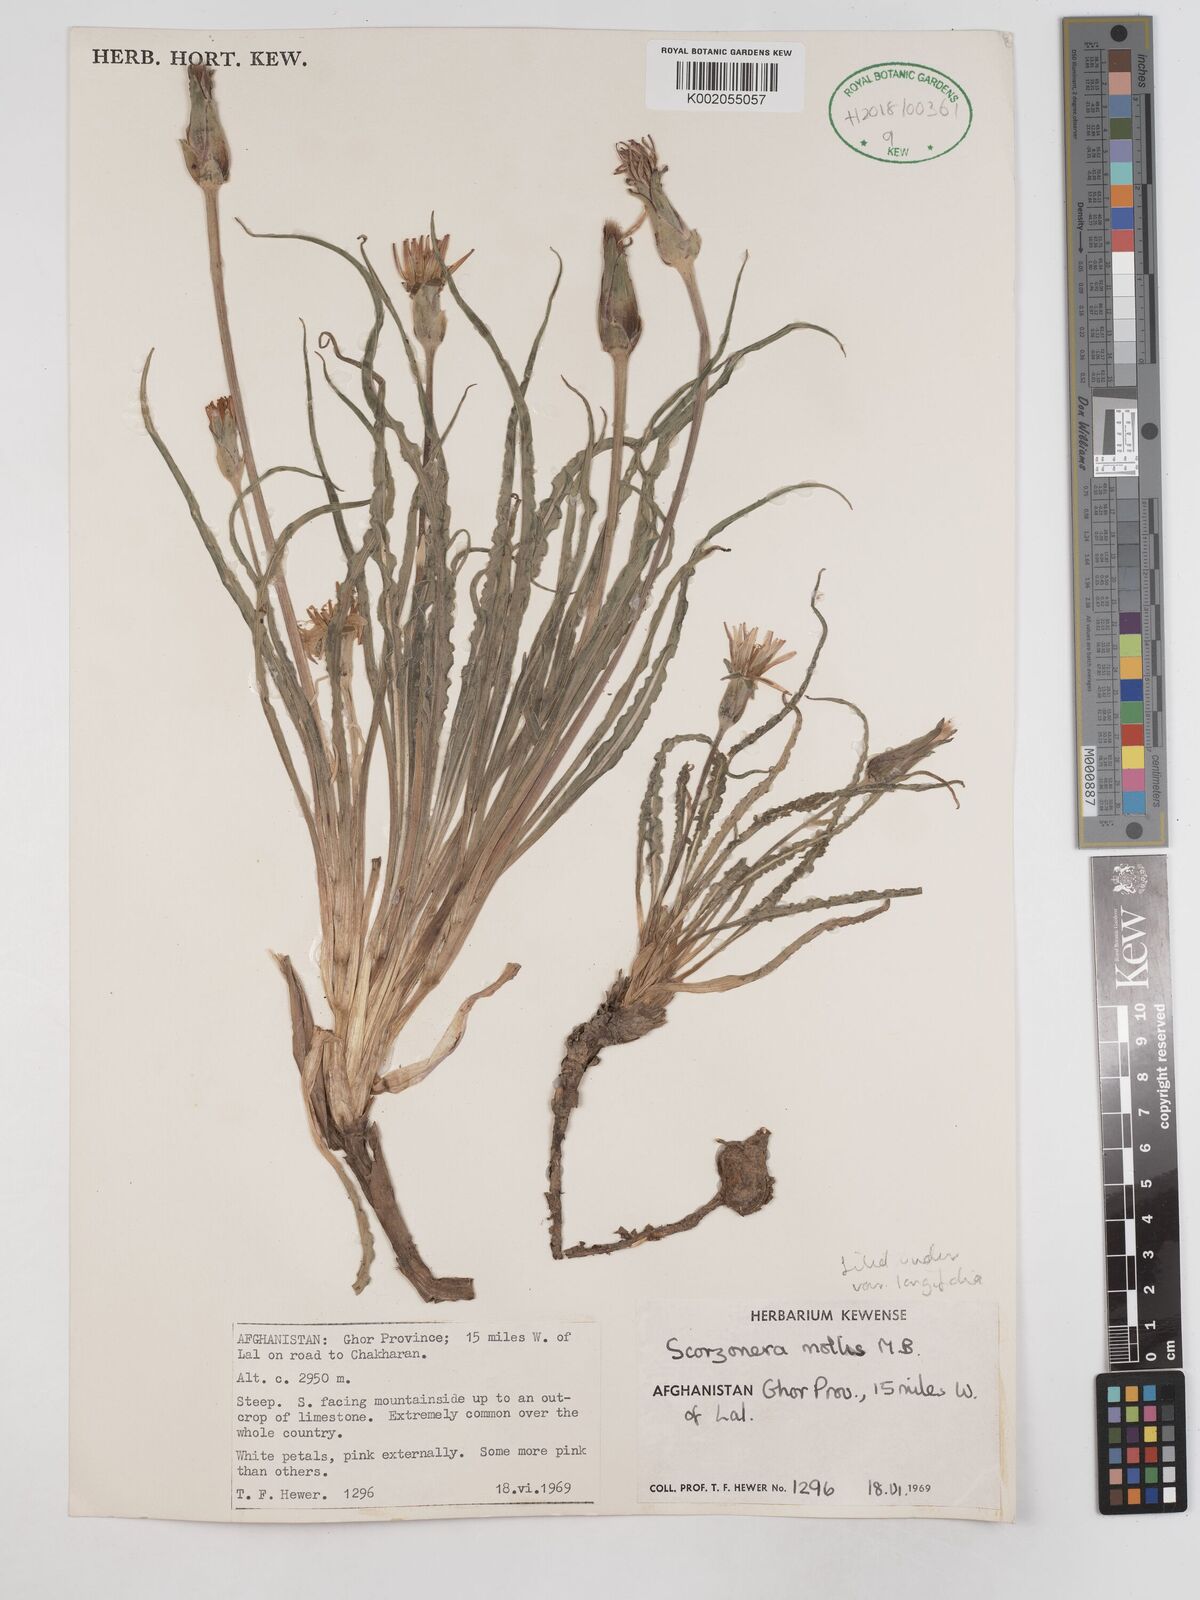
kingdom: Plantae
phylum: Tracheophyta
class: Magnoliopsida
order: Asterales
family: Asteraceae
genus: Candollea
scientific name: Candollea mollis
